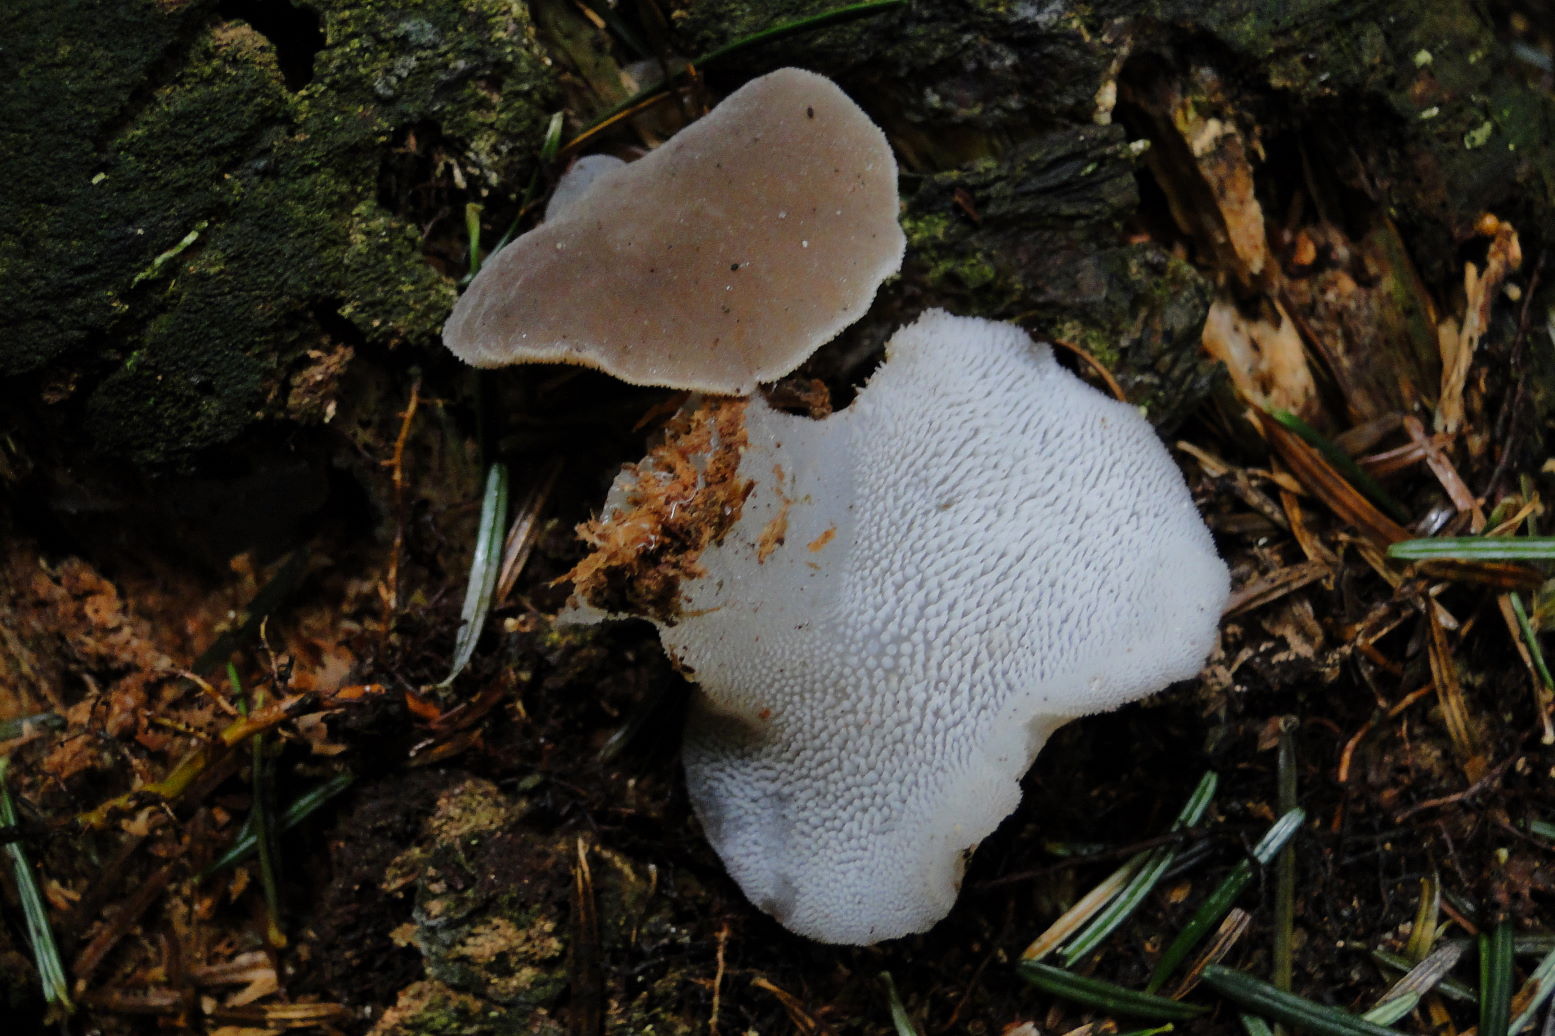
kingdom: Fungi
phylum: Basidiomycota
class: Agaricomycetes
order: Auriculariales
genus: Pseudohydnum
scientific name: Pseudohydnum gelatinosum
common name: bævretand
